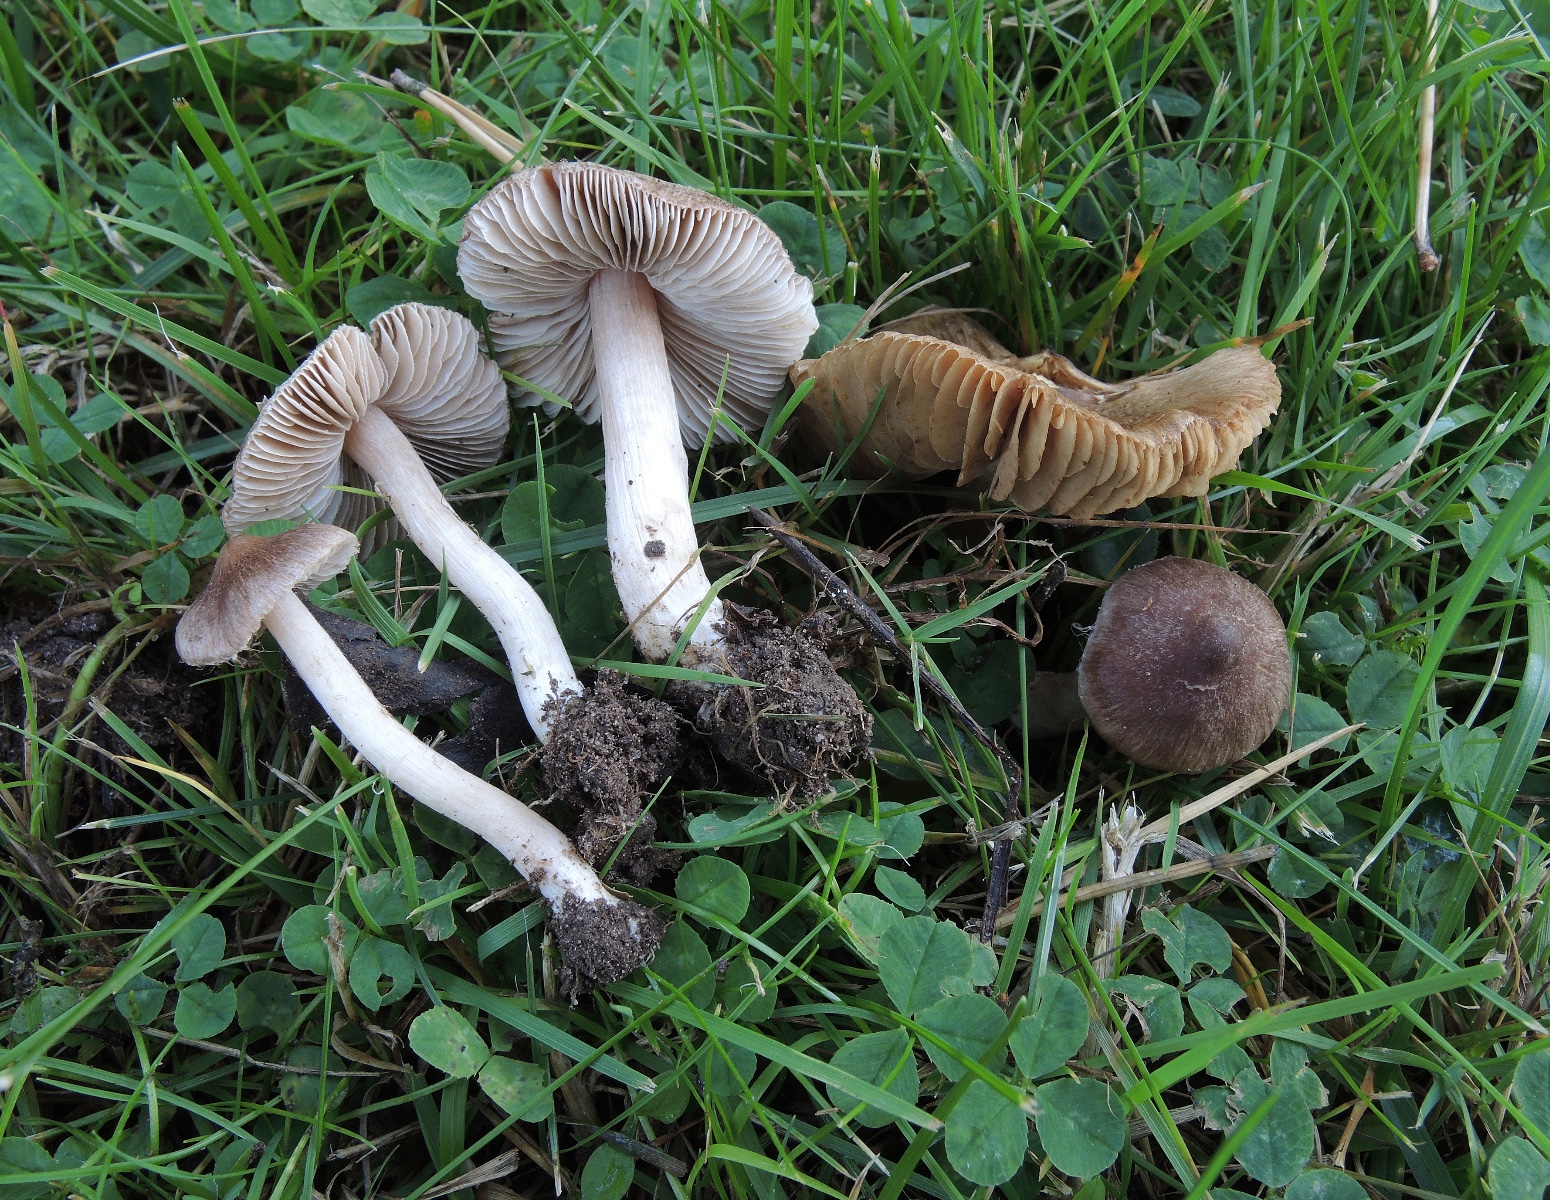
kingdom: Fungi
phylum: Basidiomycota
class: Agaricomycetes
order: Agaricales
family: Inocybaceae
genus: Inocybe
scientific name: Inocybe astraiana
